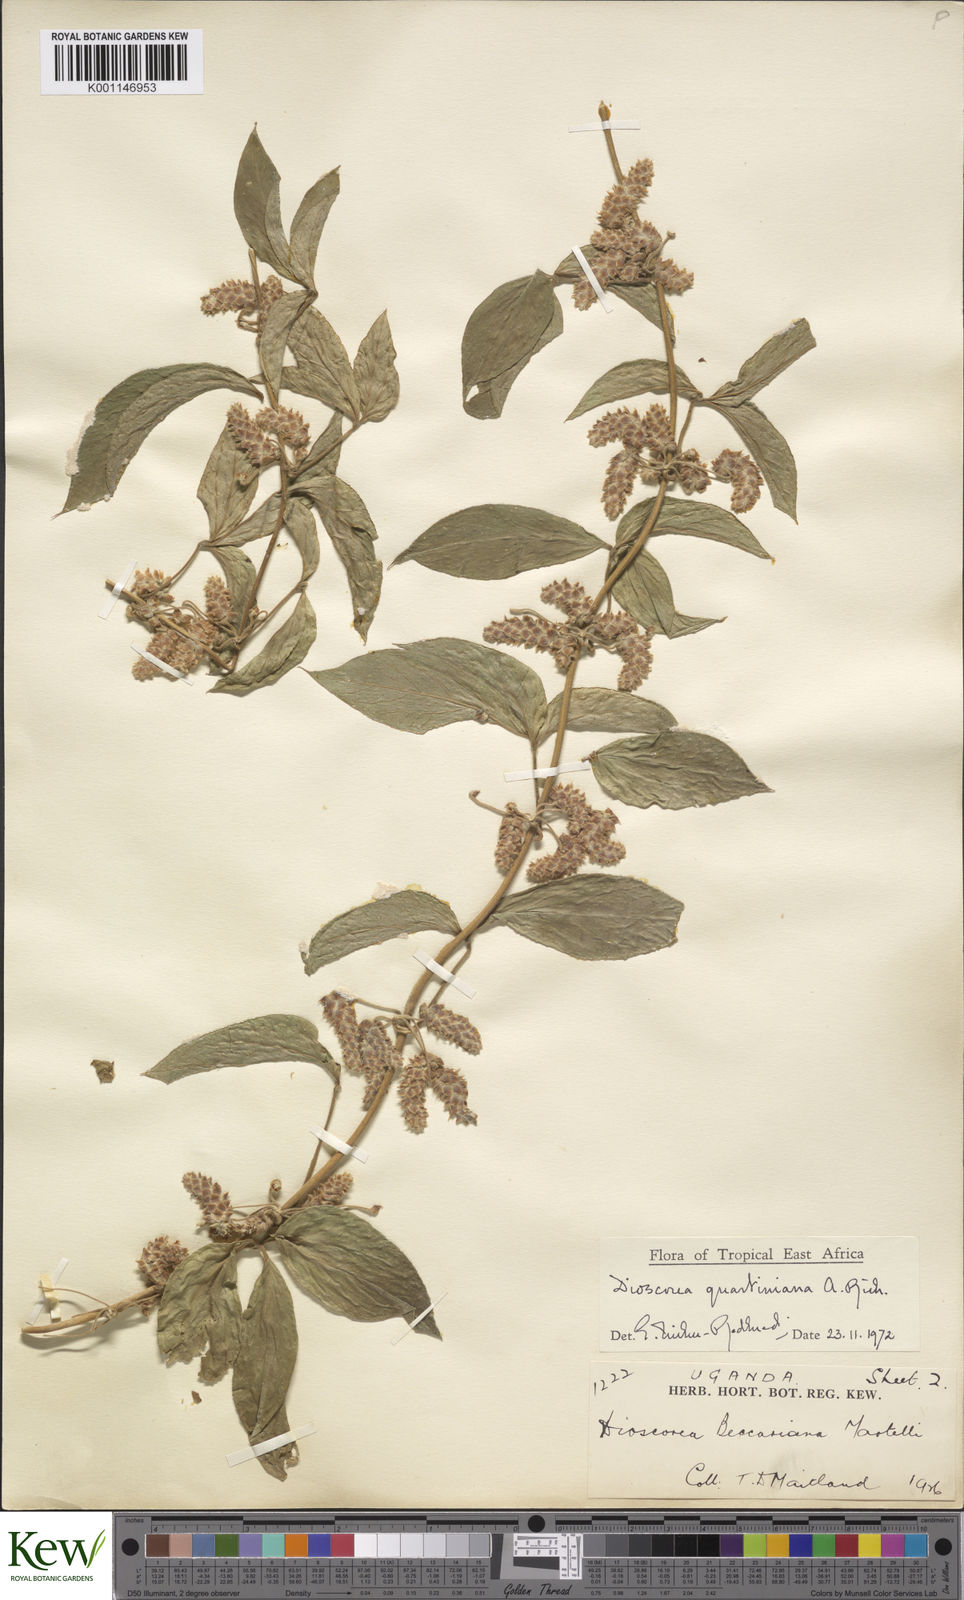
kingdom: Plantae
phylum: Tracheophyta
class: Liliopsida
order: Dioscoreales
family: Dioscoreaceae
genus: Dioscorea
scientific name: Dioscorea quartiniana
